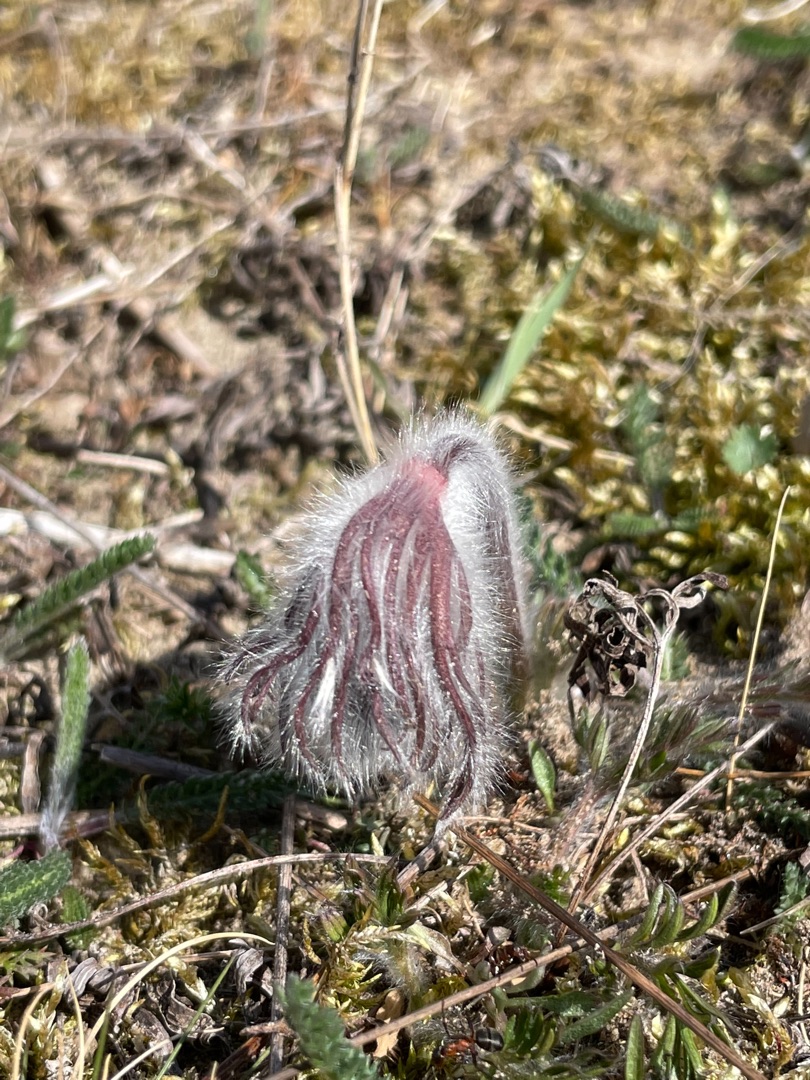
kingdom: Plantae
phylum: Tracheophyta
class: Magnoliopsida
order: Ranunculales
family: Ranunculaceae
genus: Pulsatilla
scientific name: Pulsatilla pratensis
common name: Nikkende kobjælde
